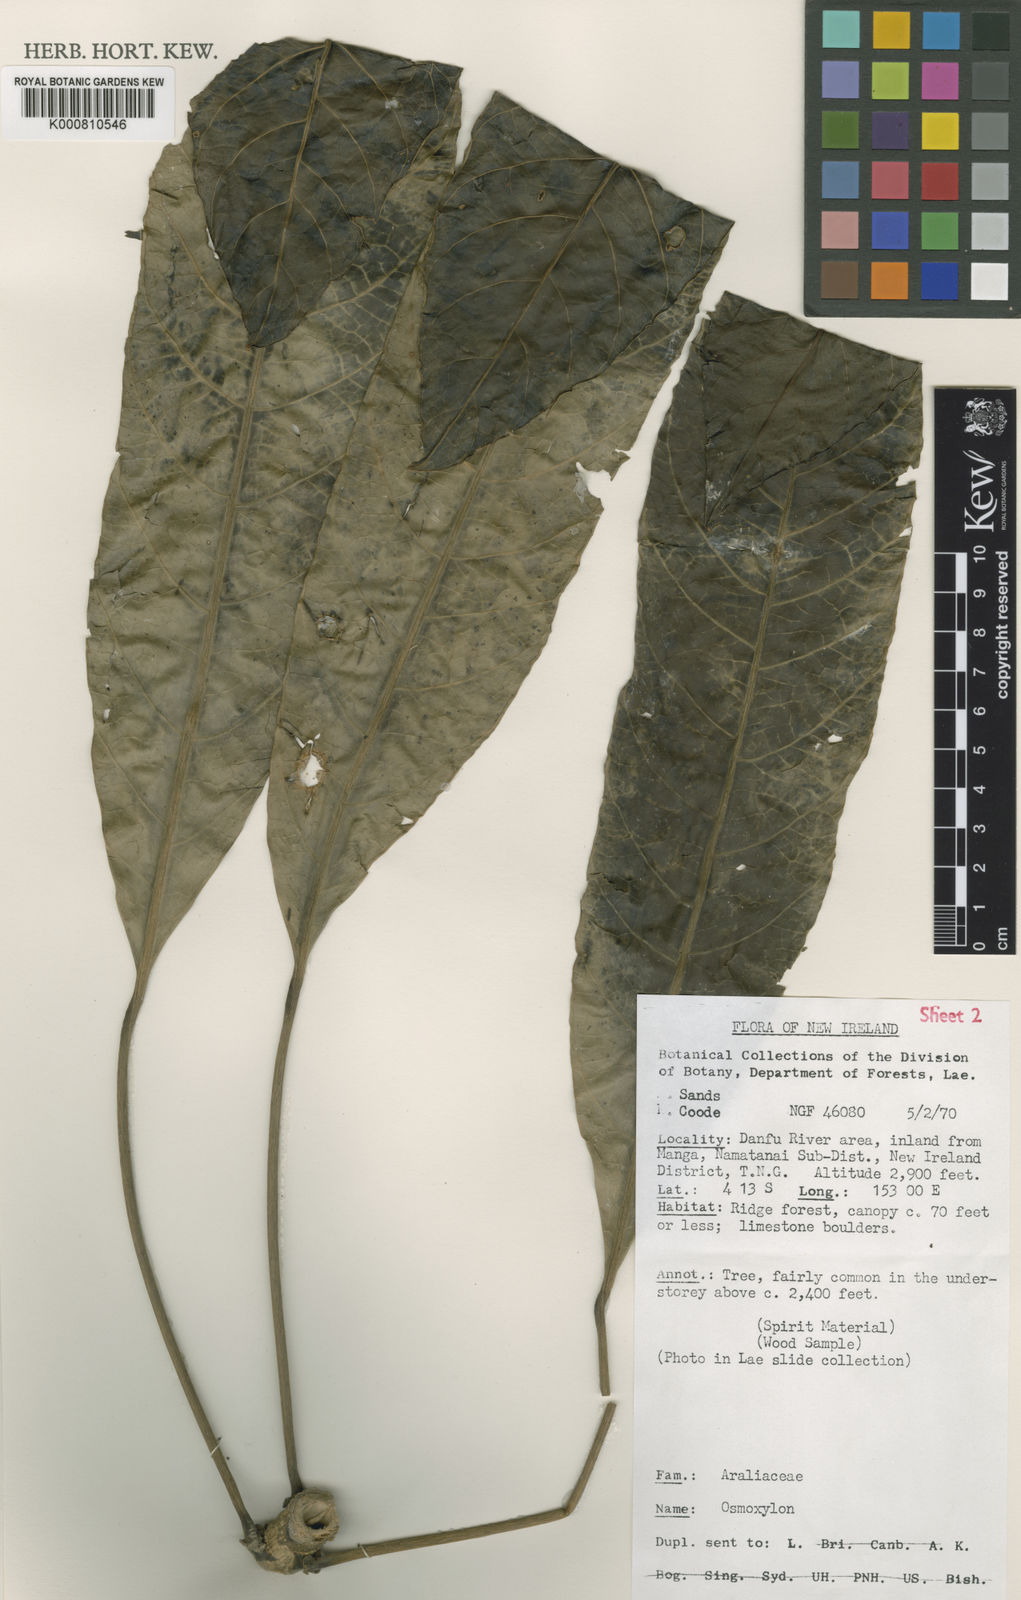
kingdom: Plantae
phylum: Tracheophyta
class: Magnoliopsida
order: Apiales
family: Araliaceae
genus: Osmoxylon
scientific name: Osmoxylon lanceolatum
